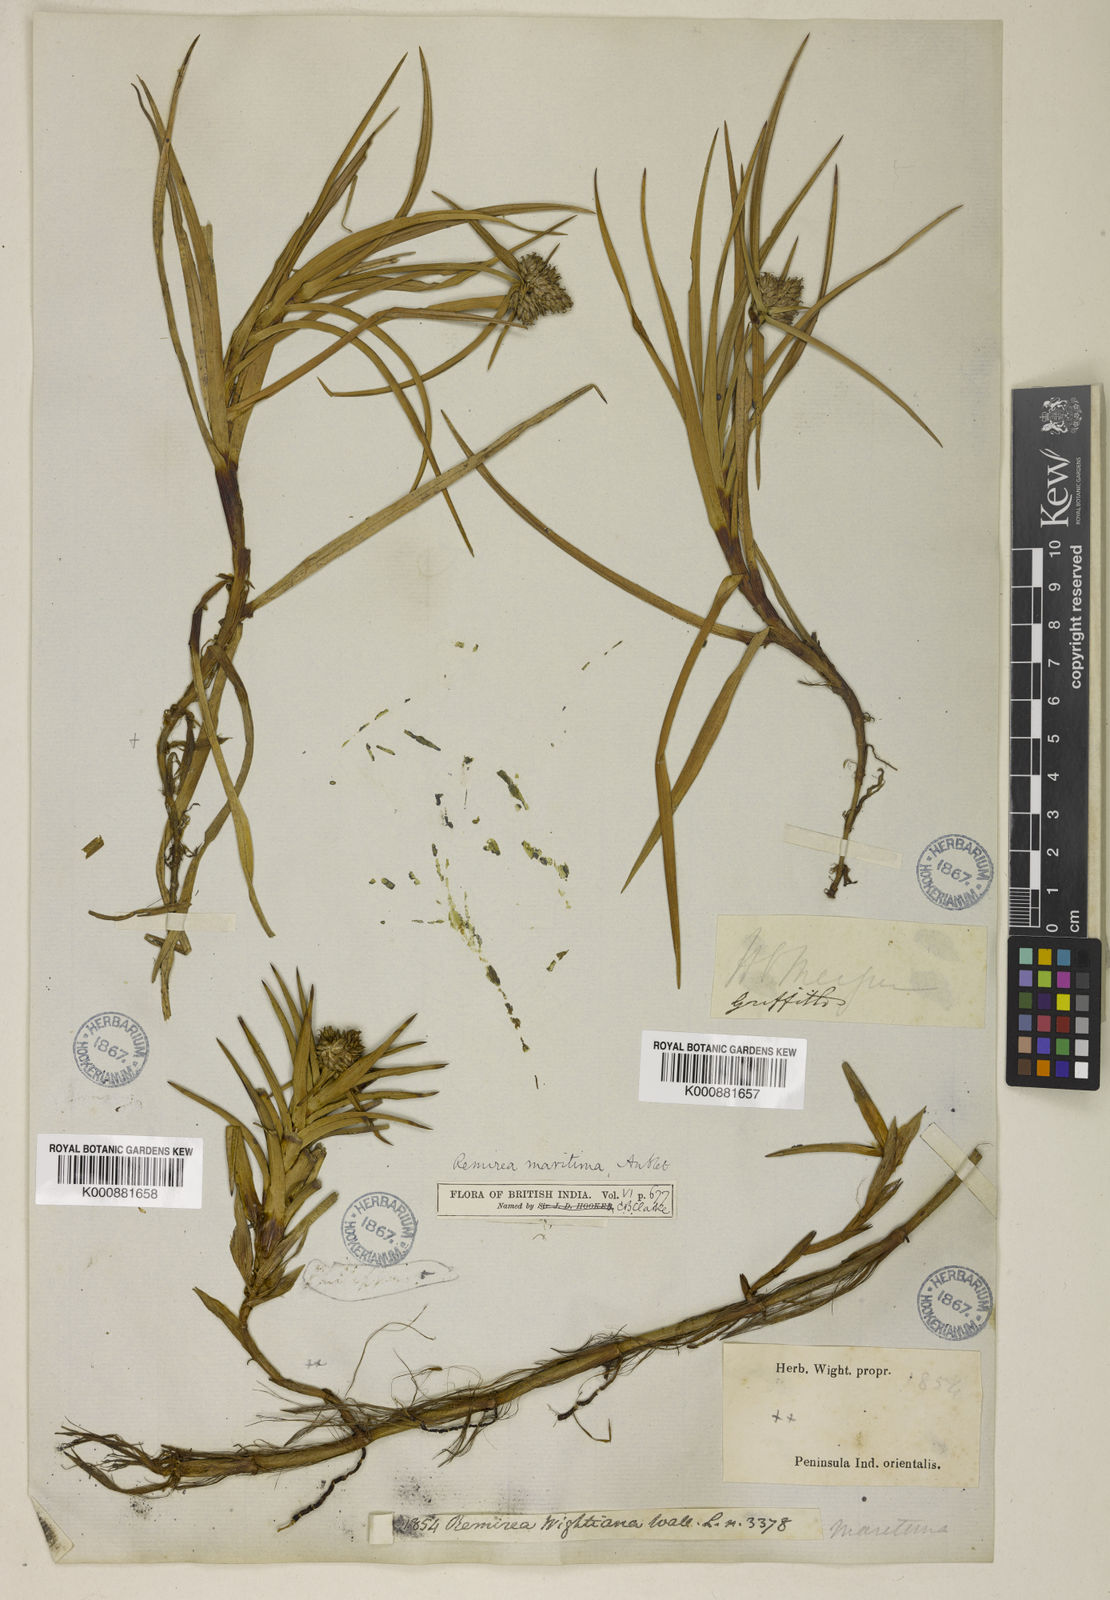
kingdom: Plantae
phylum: Tracheophyta
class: Liliopsida
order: Poales
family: Cyperaceae
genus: Cyperus
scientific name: Cyperus pedunculatus
